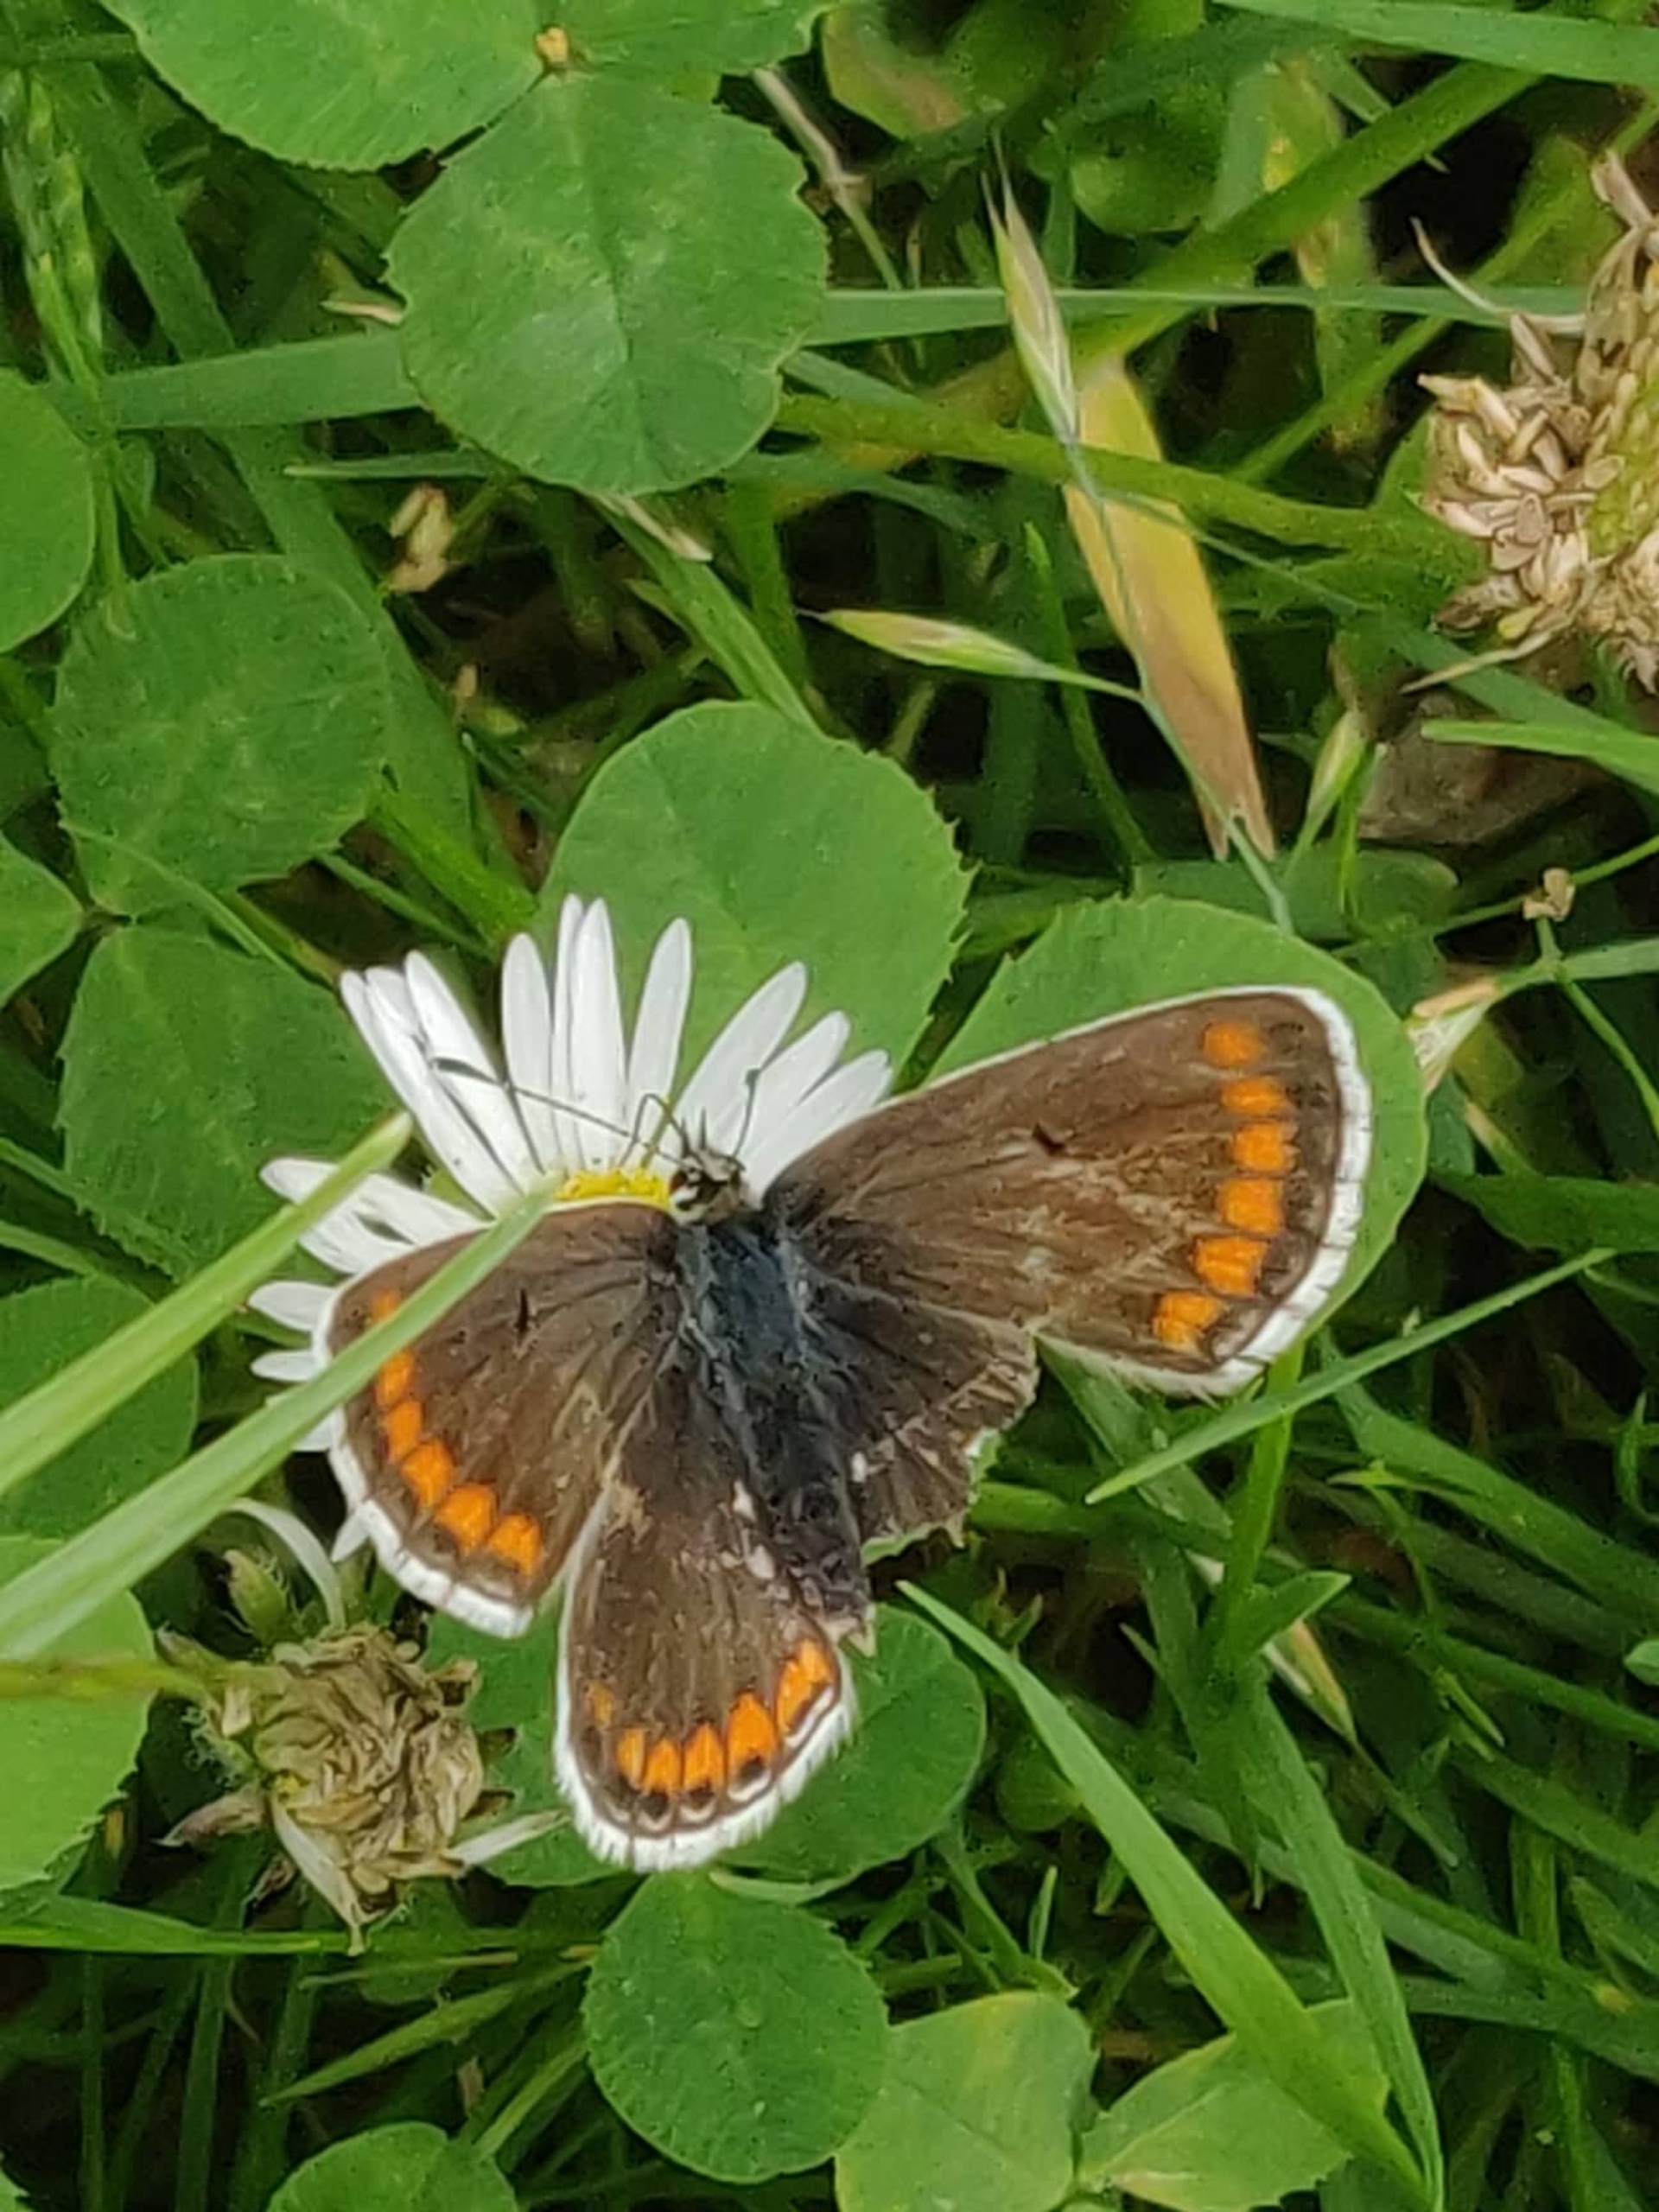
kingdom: Animalia
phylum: Arthropoda
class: Insecta
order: Lepidoptera
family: Lycaenidae
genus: Aricia
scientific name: Aricia agestis
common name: Rødplettet blåfugl
